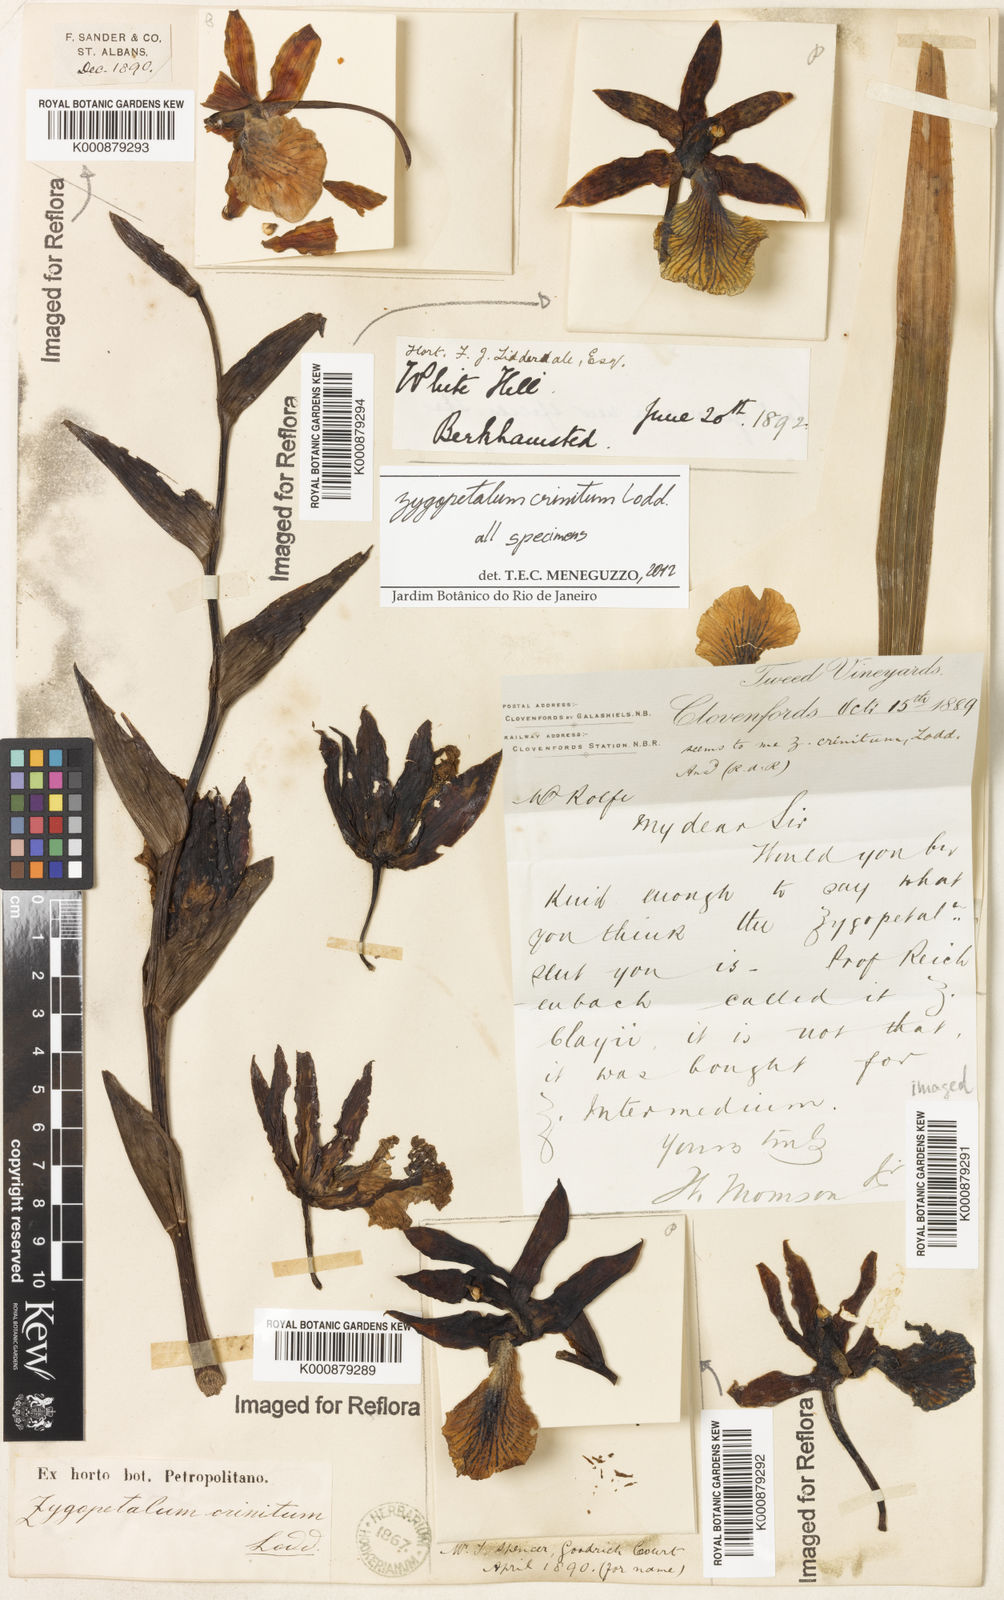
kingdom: Plantae
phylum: Tracheophyta
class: Liliopsida
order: Asparagales
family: Orchidaceae
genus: Zygopetalum
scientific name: Zygopetalum crinitum
